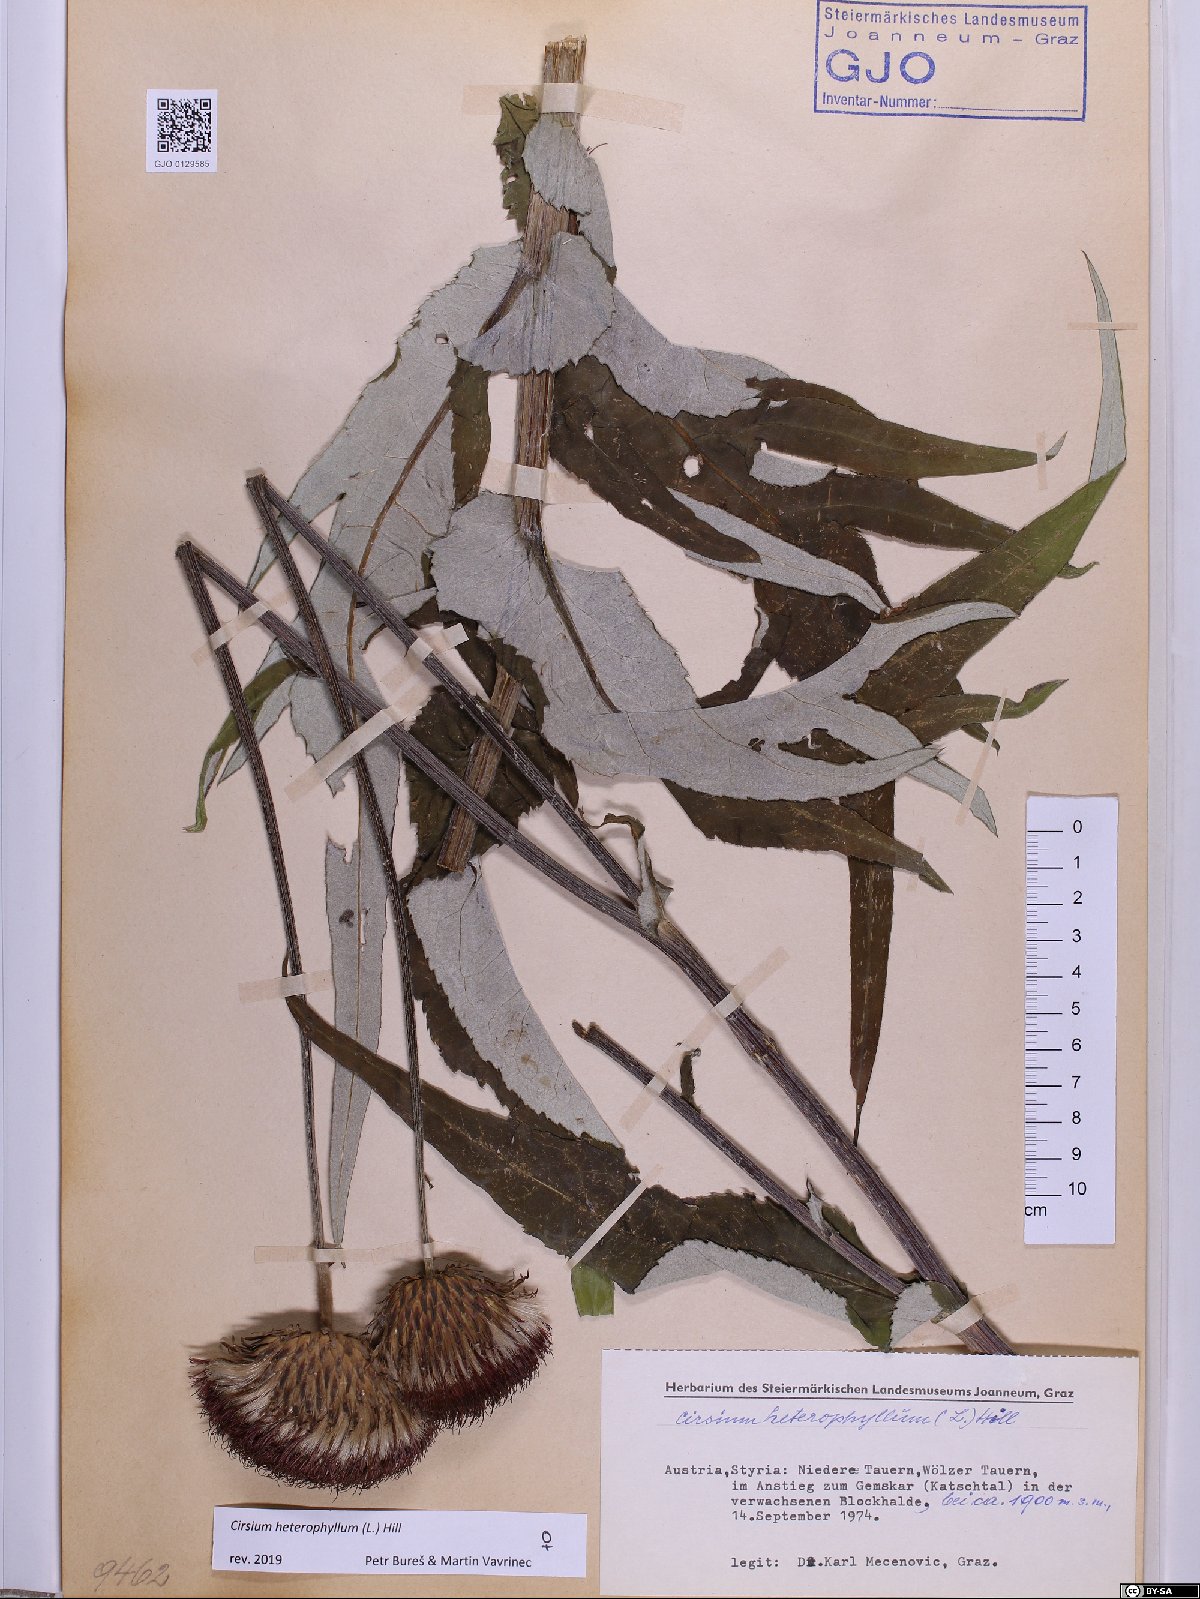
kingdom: Plantae
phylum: Tracheophyta
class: Magnoliopsida
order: Asterales
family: Asteraceae
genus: Cirsium
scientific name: Cirsium heterophyllum
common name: Melancholy thistle
